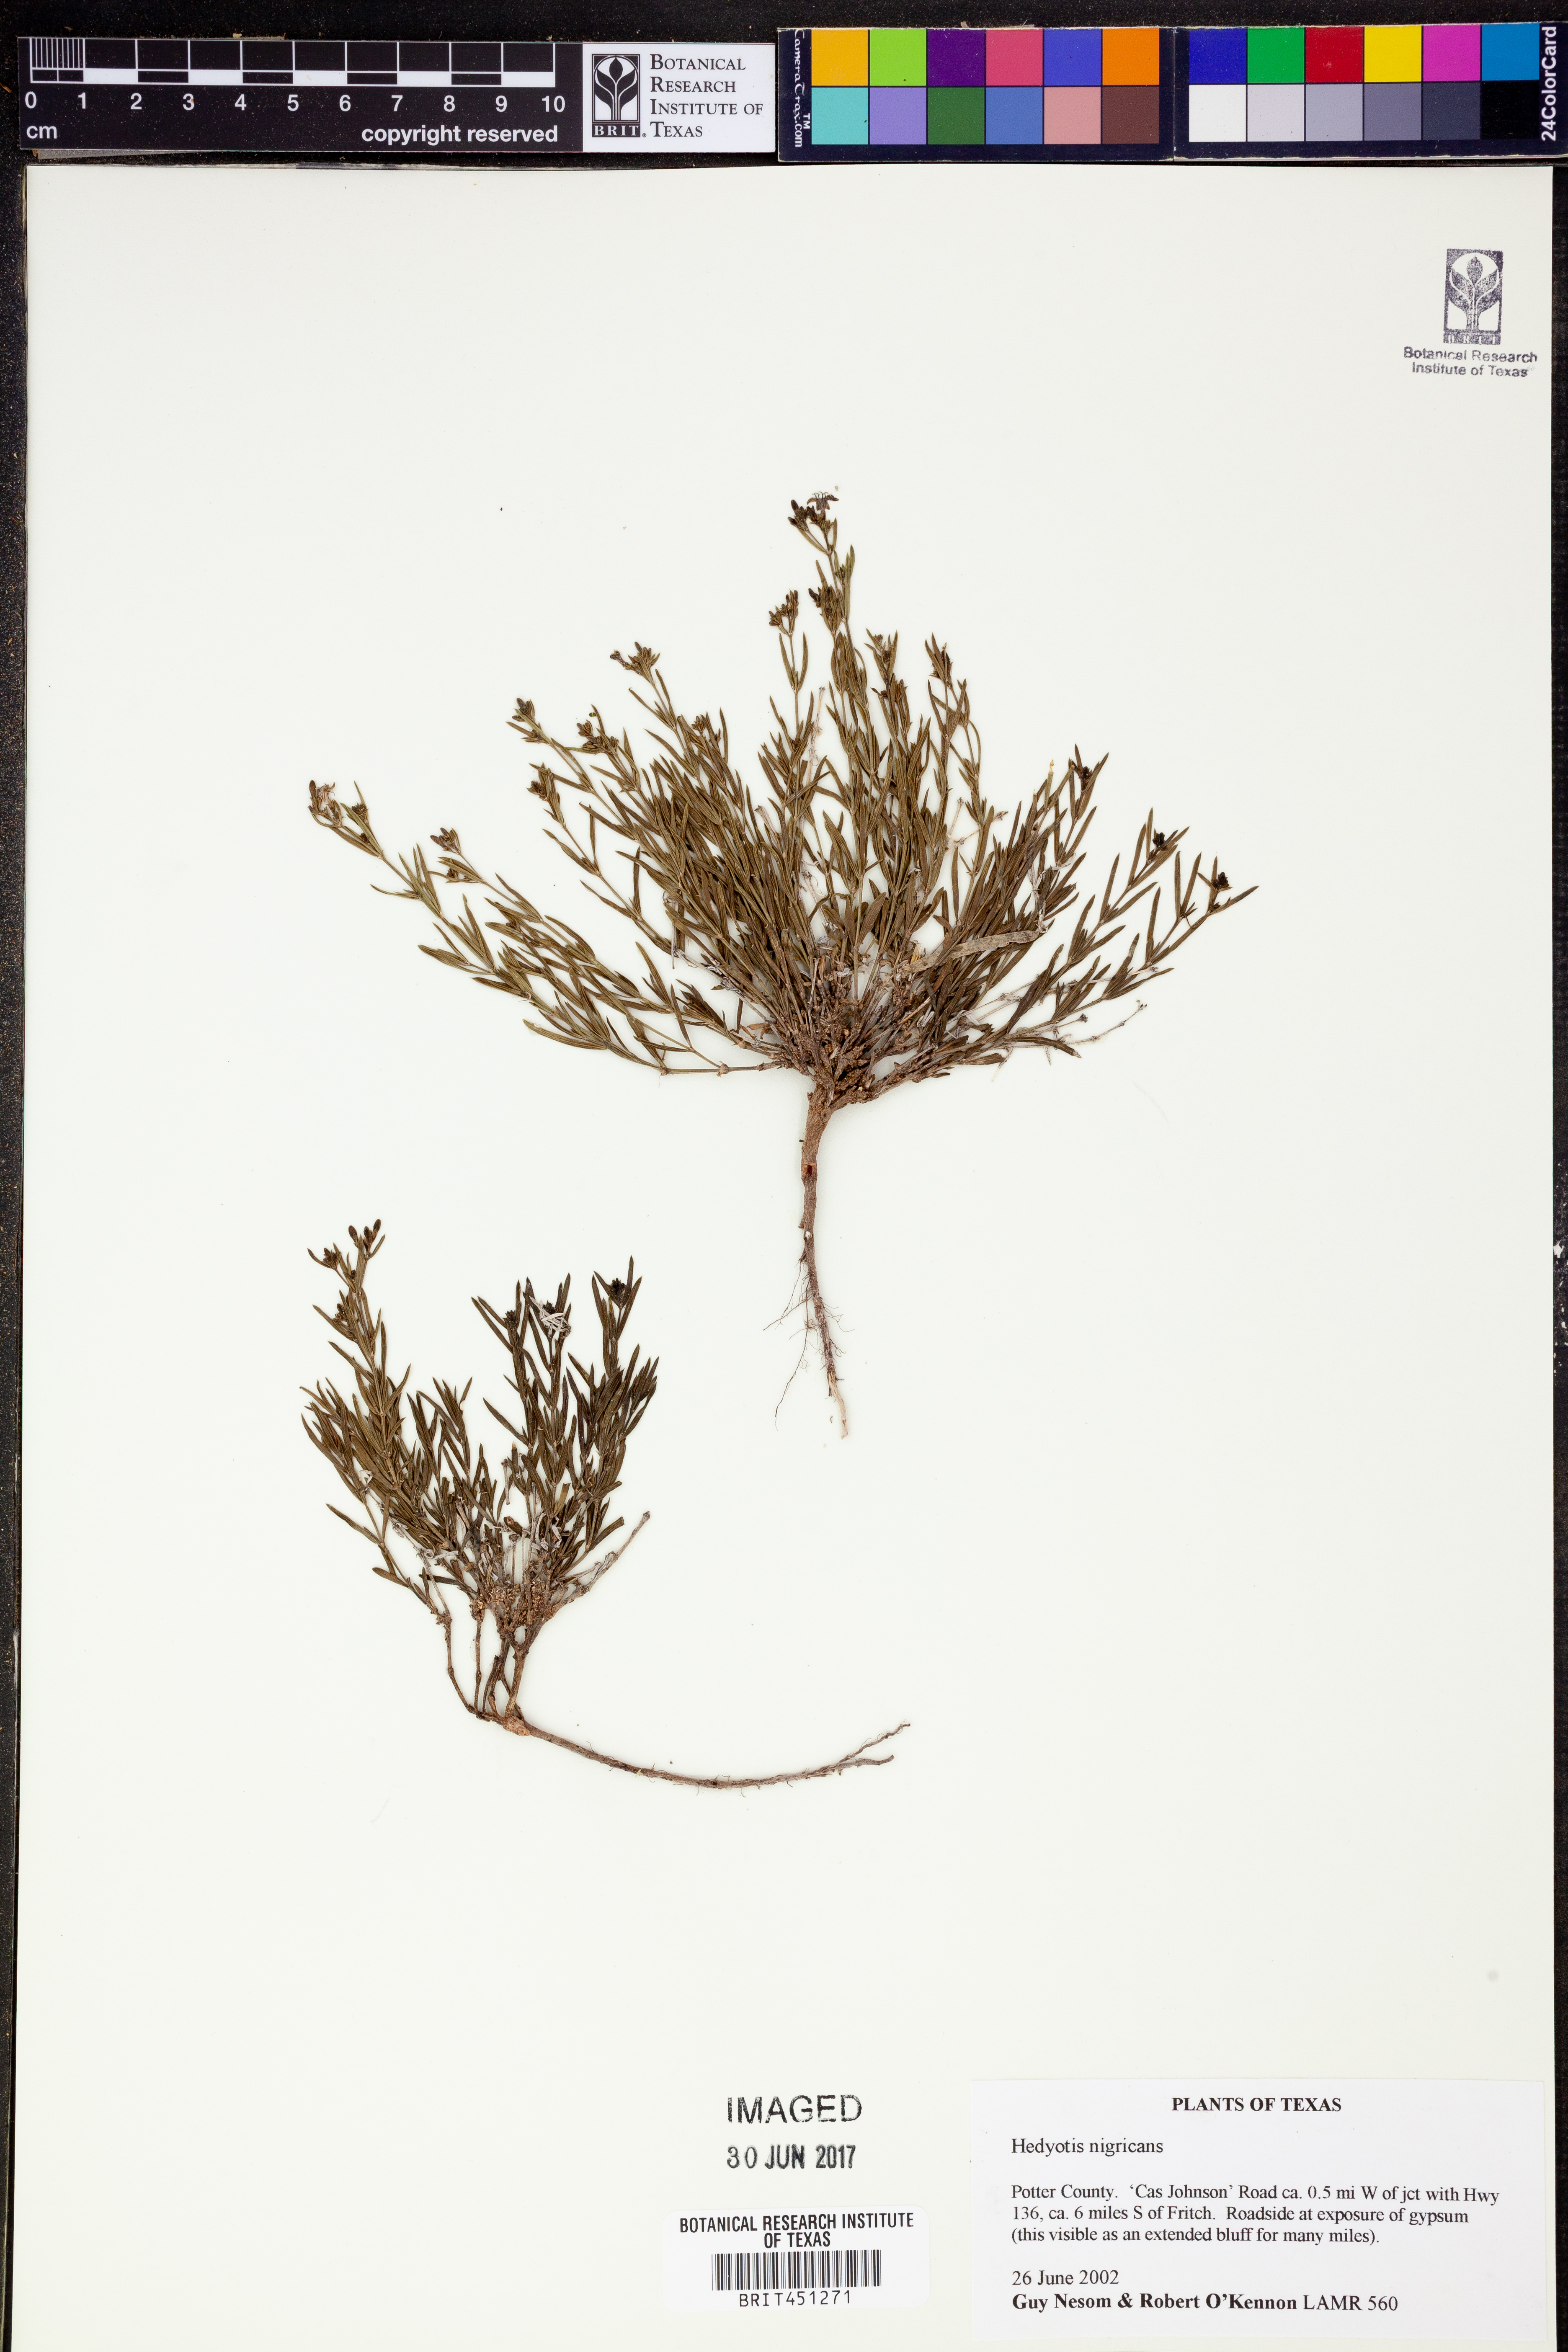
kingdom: Plantae
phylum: Tracheophyta
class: Magnoliopsida
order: Gentianales
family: Rubiaceae
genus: Stenaria
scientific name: Stenaria nigricans
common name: Diamondflowers
